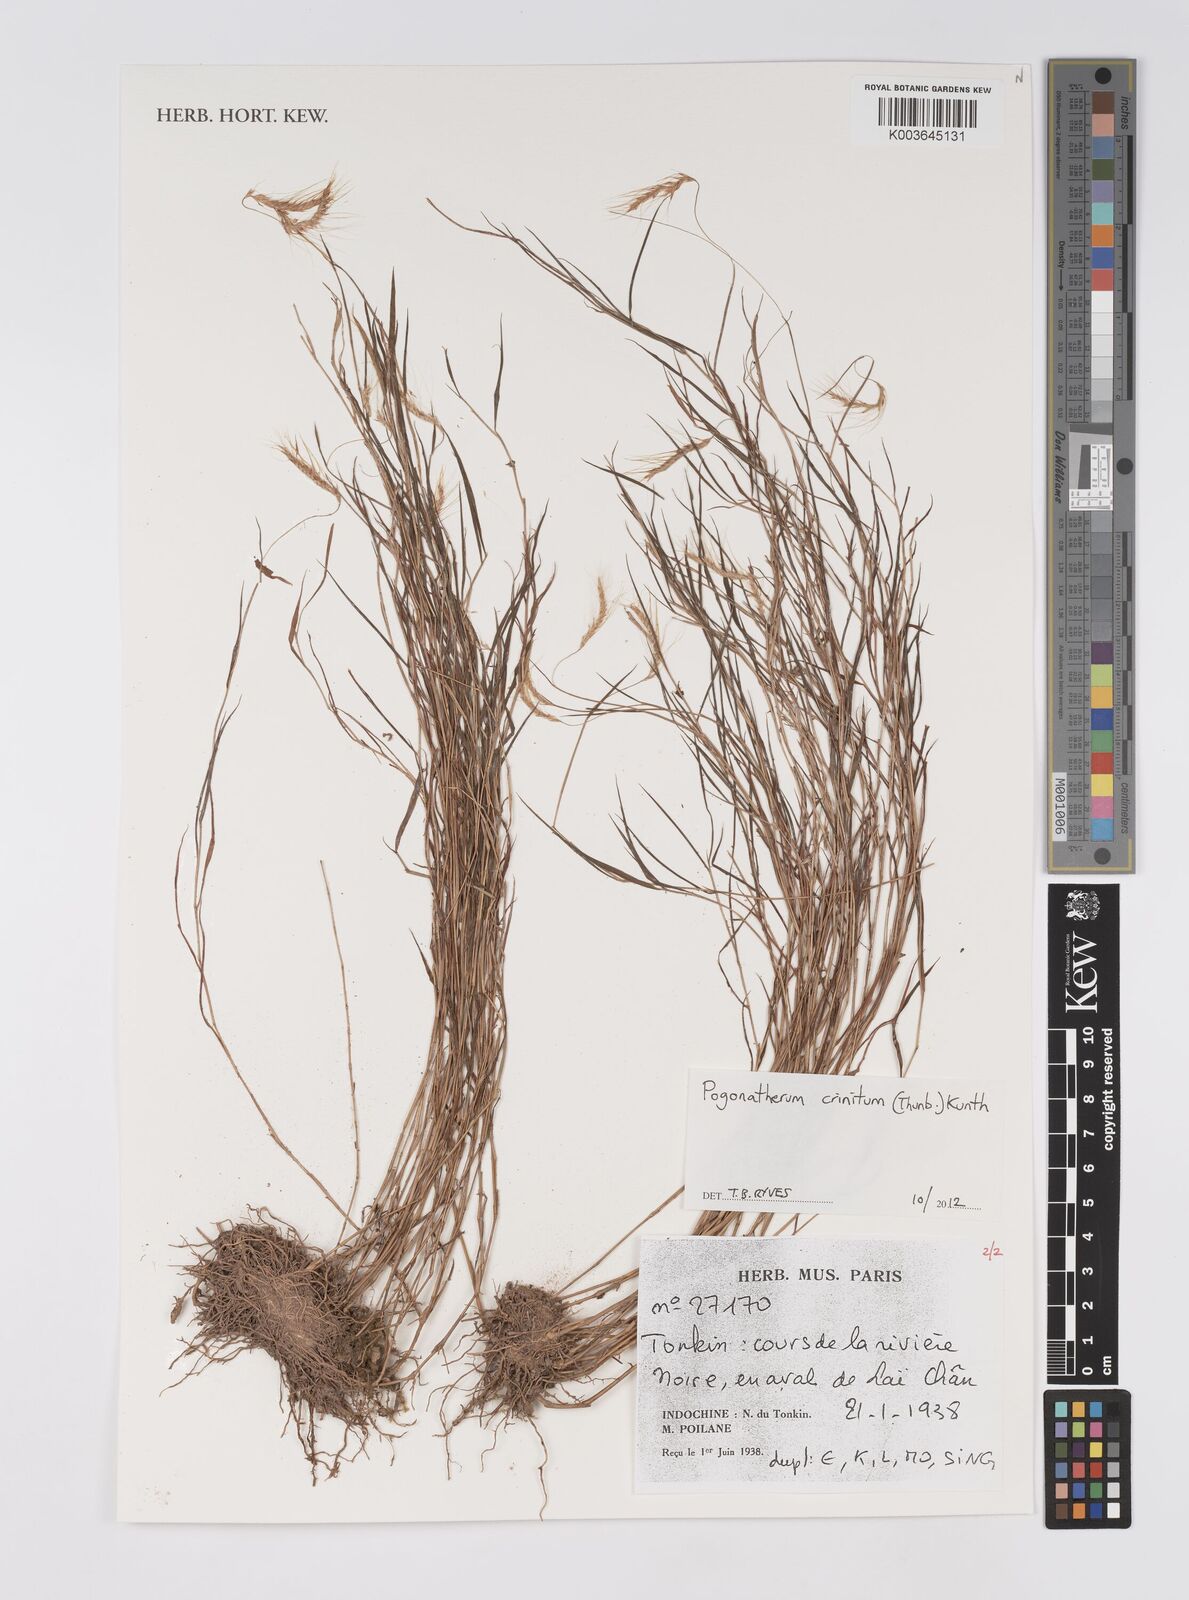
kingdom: Plantae
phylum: Tracheophyta
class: Liliopsida
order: Poales
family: Poaceae
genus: Pogonatherum
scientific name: Pogonatherum crinitum
